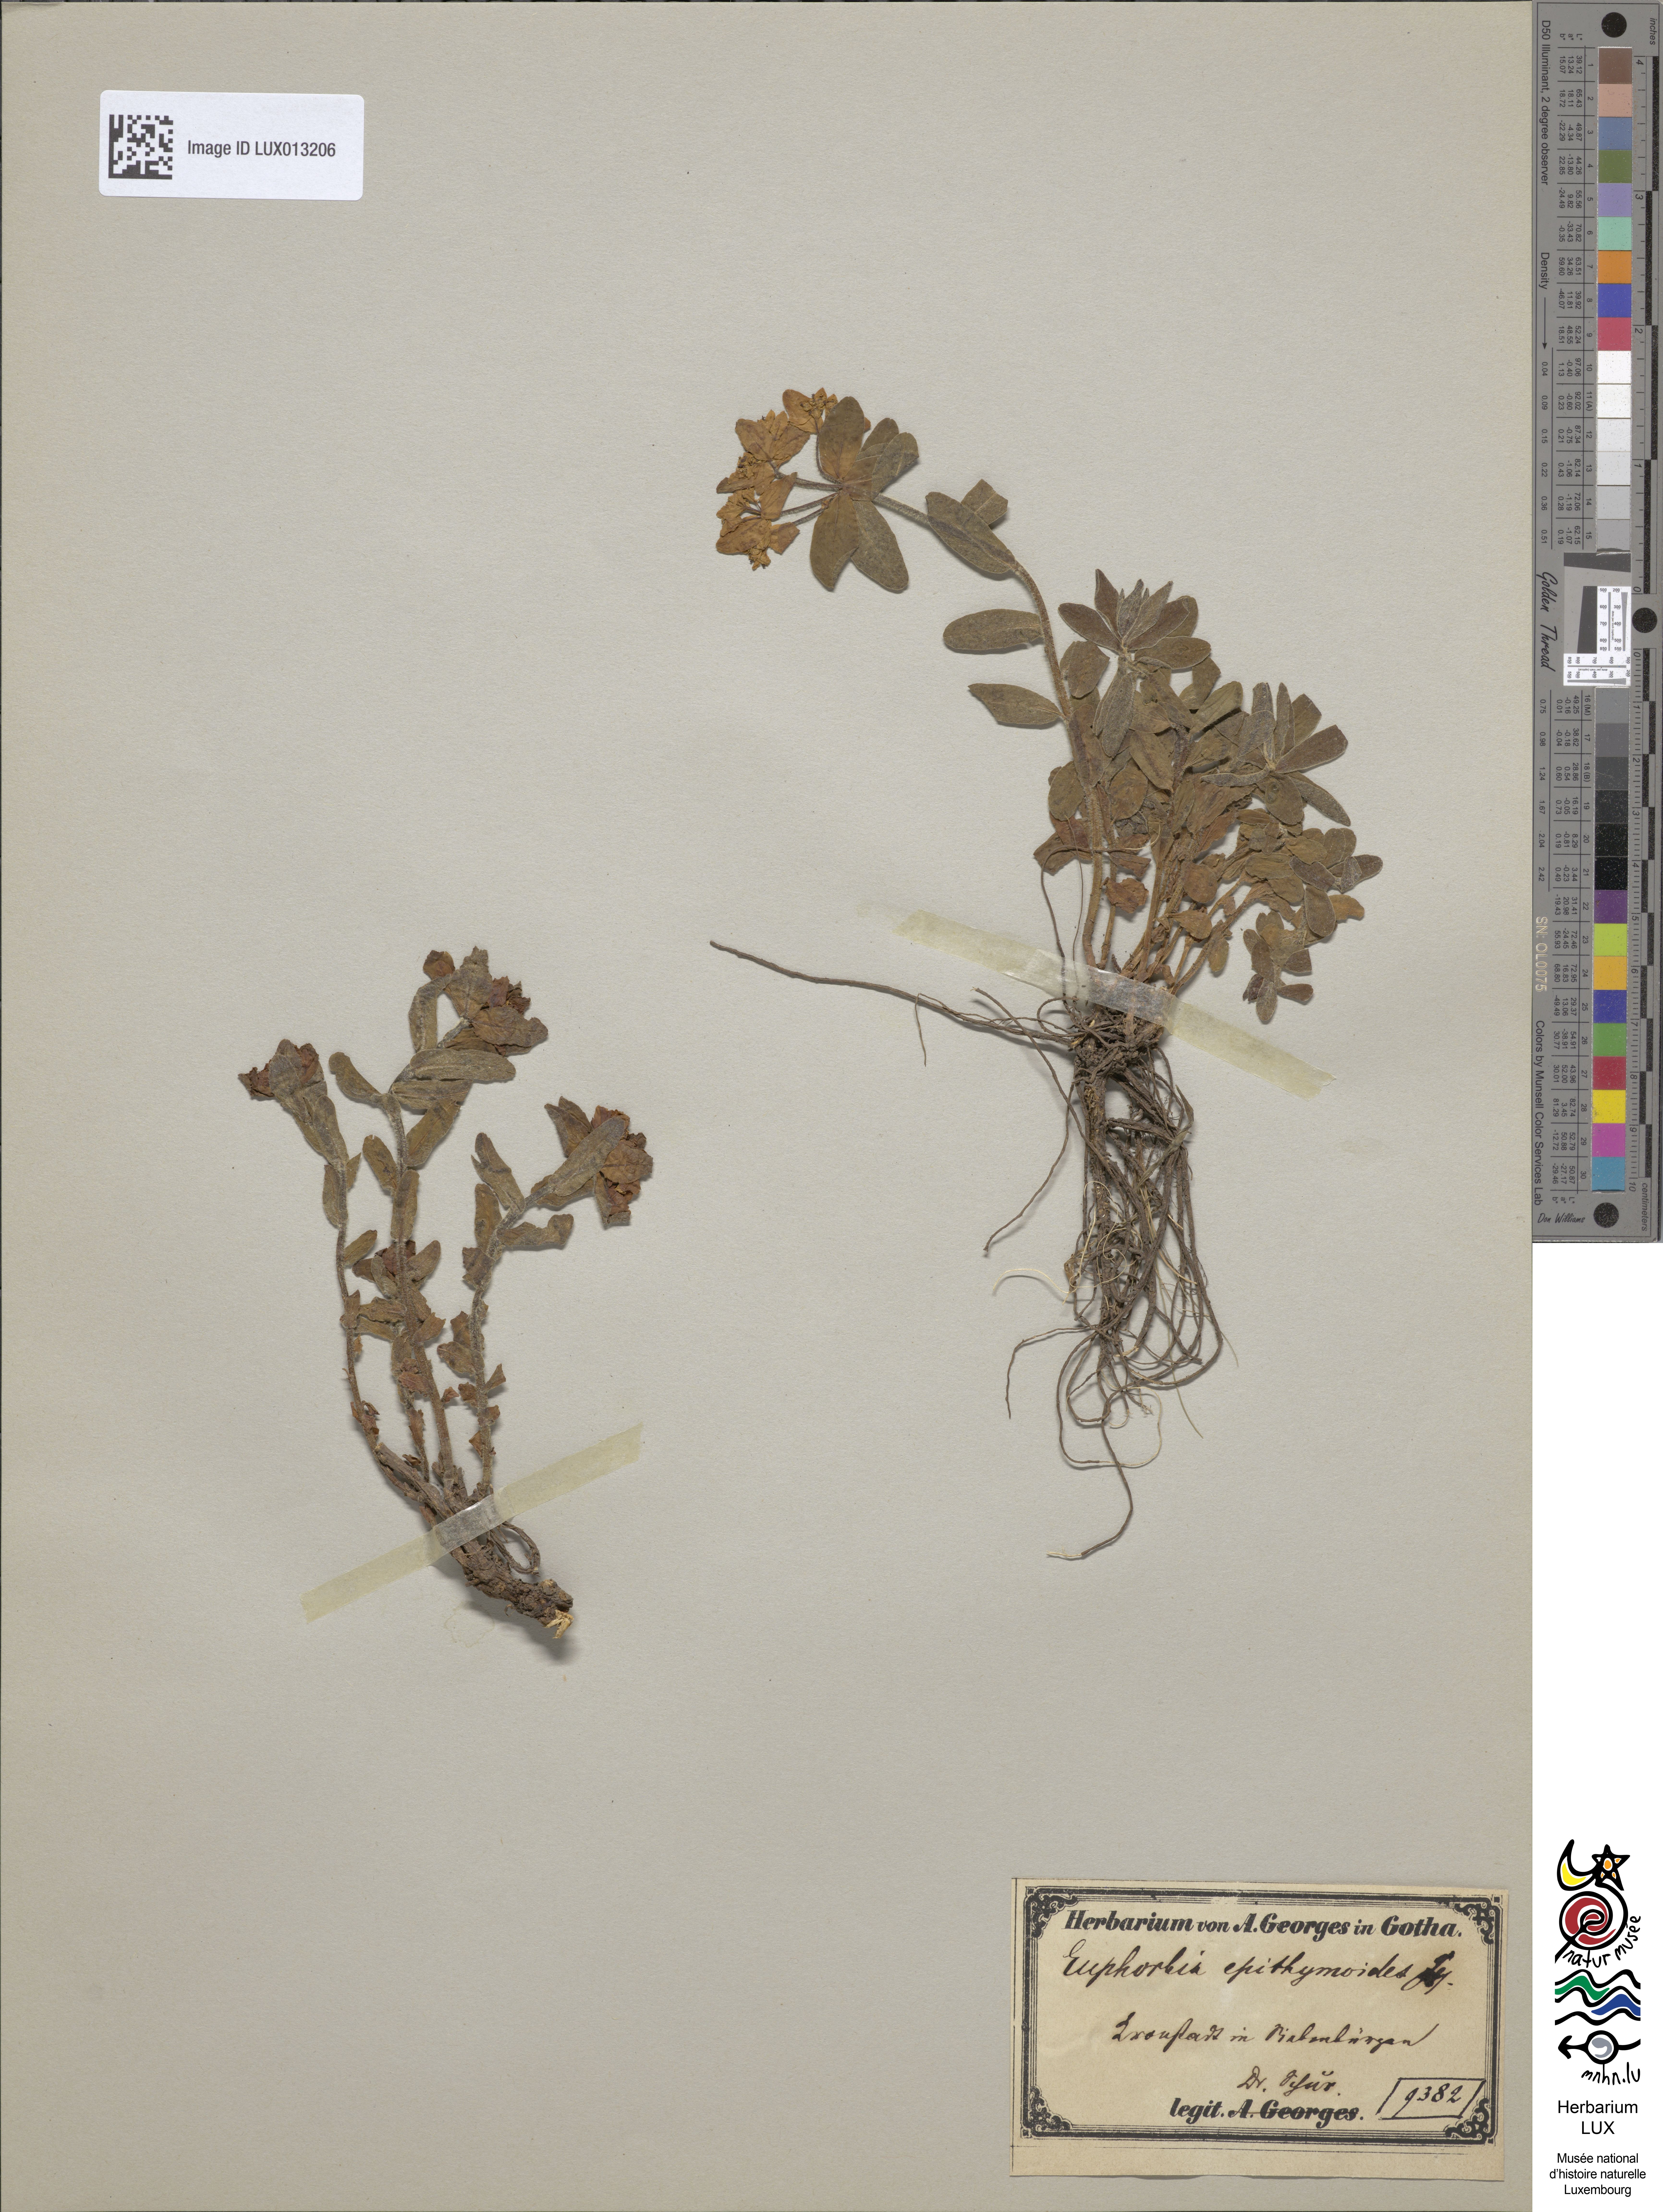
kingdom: Plantae
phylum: Tracheophyta
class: Magnoliopsida
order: Malpighiales
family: Euphorbiaceae
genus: Euphorbia
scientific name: Euphorbia epithymoides
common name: Cushion spurge
